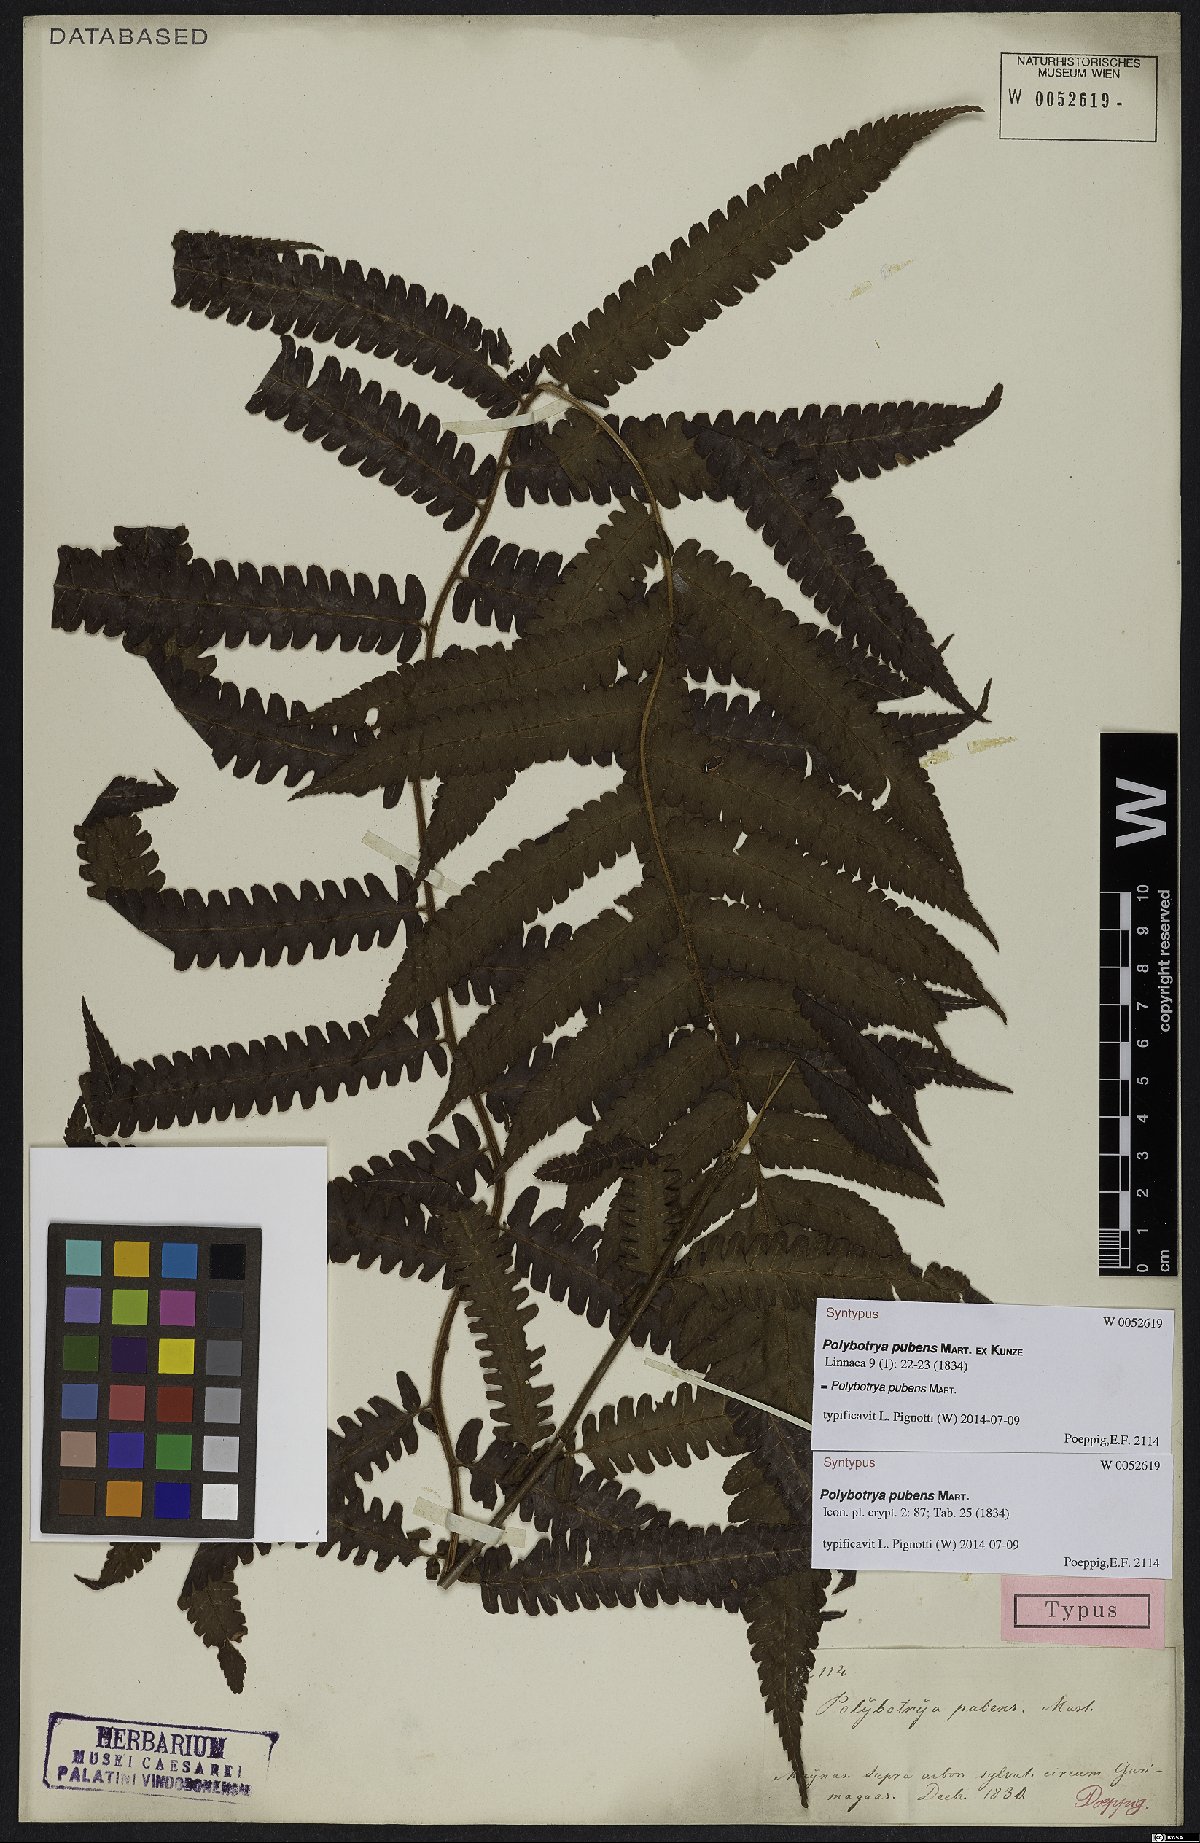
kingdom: Plantae
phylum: Tracheophyta
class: Polypodiopsida
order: Polypodiales
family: Dryopteridaceae
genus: Polybotrya
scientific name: Polybotrya pubens
